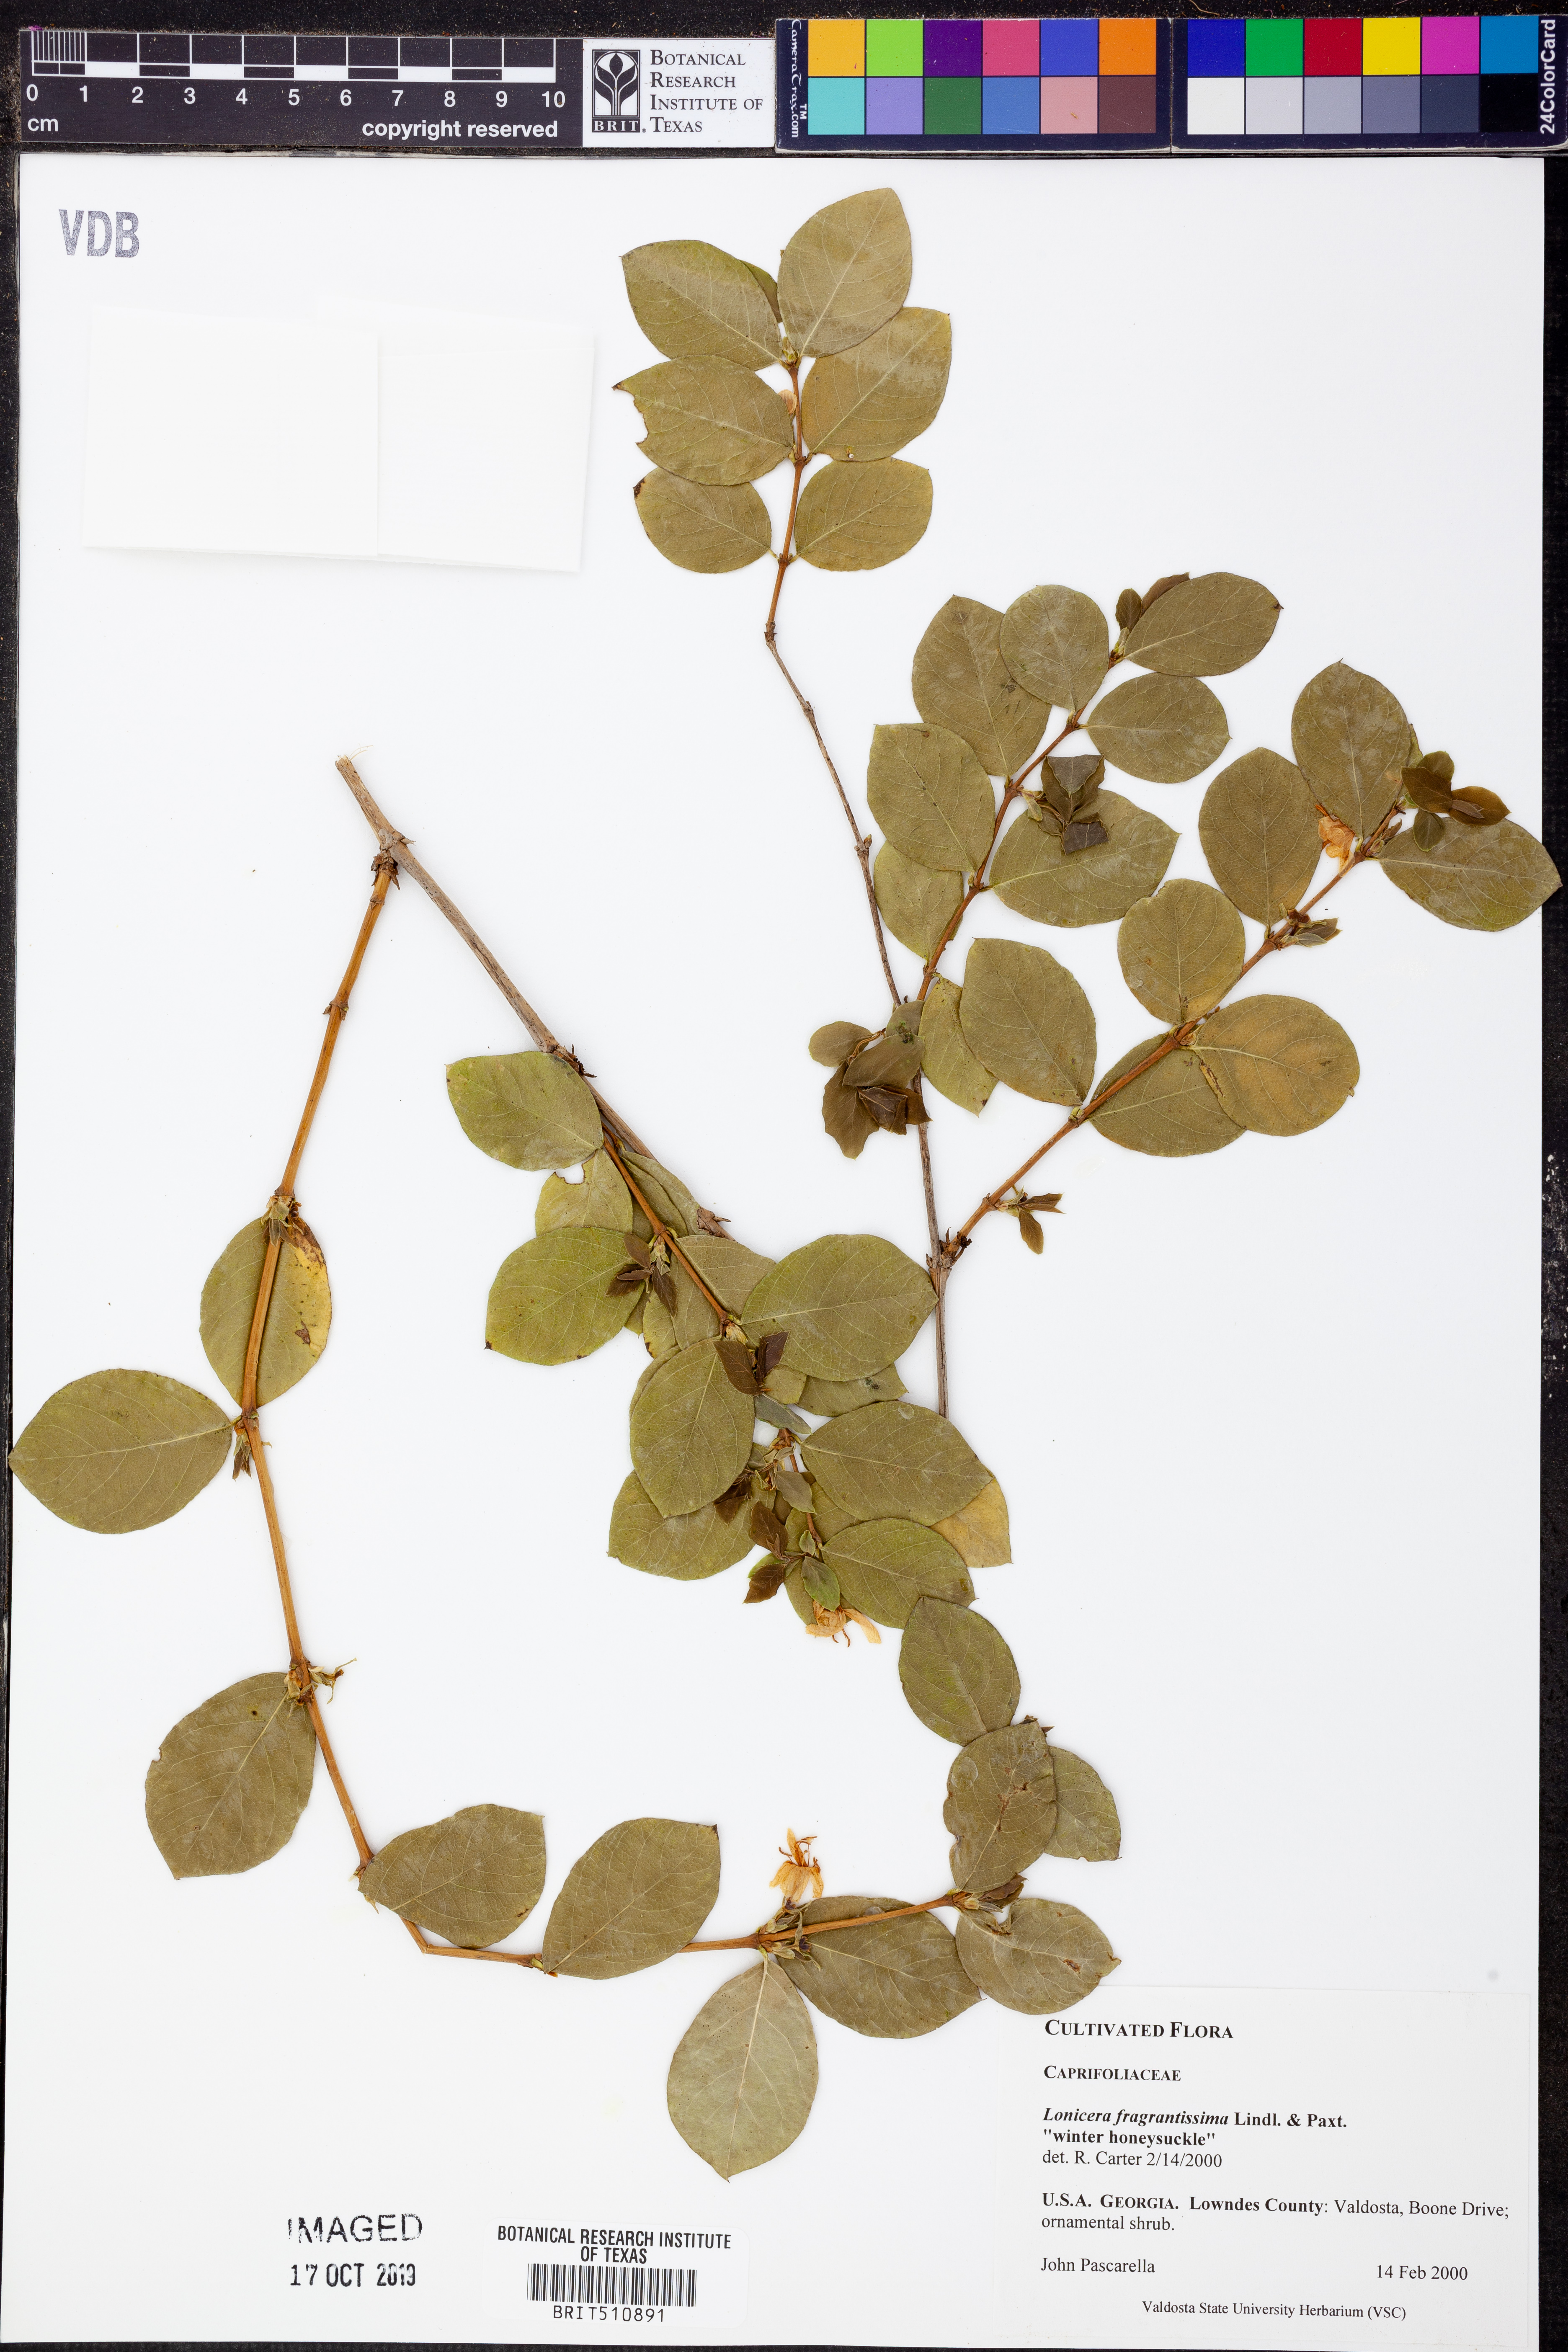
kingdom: Plantae
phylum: Tracheophyta
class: Magnoliopsida
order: Dipsacales
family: Caprifoliaceae
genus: Lonicera
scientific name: Lonicera fragrantissima
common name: Fragrant honeysuckle
